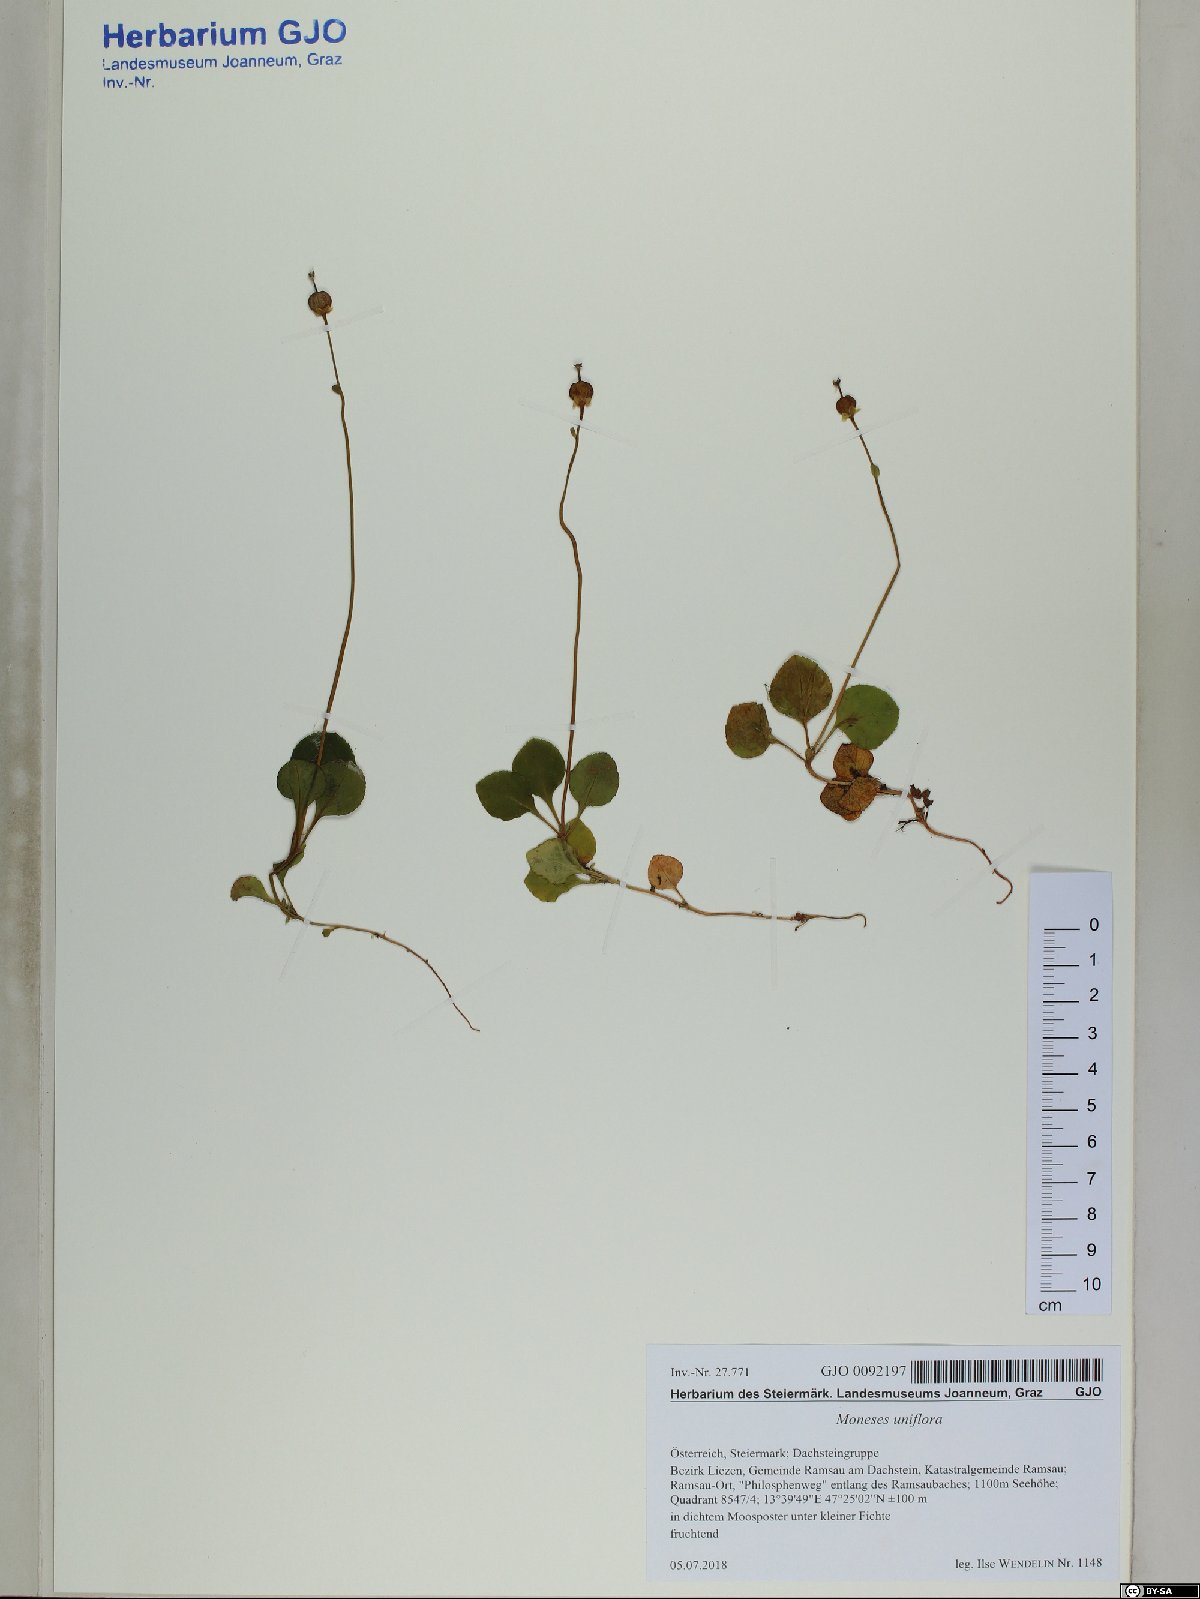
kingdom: Plantae
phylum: Tracheophyta
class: Magnoliopsida
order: Ericales
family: Ericaceae
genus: Moneses
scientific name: Moneses uniflora
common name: One-flowered wintergreen
